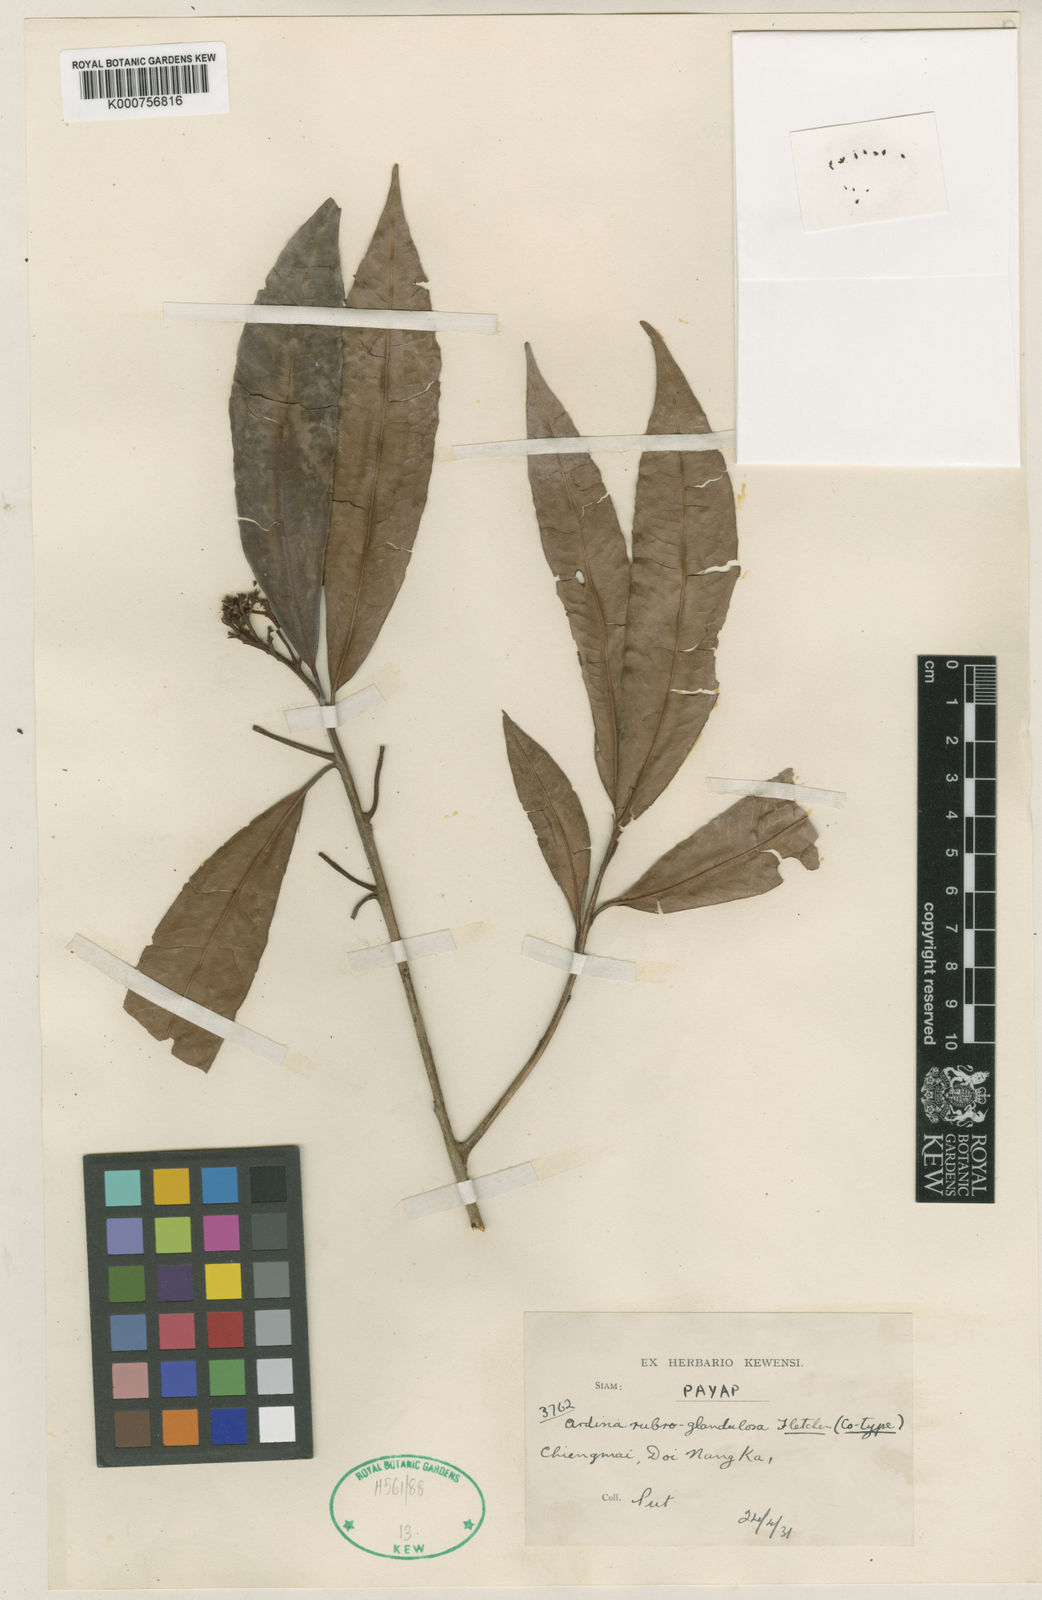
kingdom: Plantae
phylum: Tracheophyta
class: Magnoliopsida
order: Ericales
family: Primulaceae
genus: Ardisia
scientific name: Ardisia rubroglandulosa
